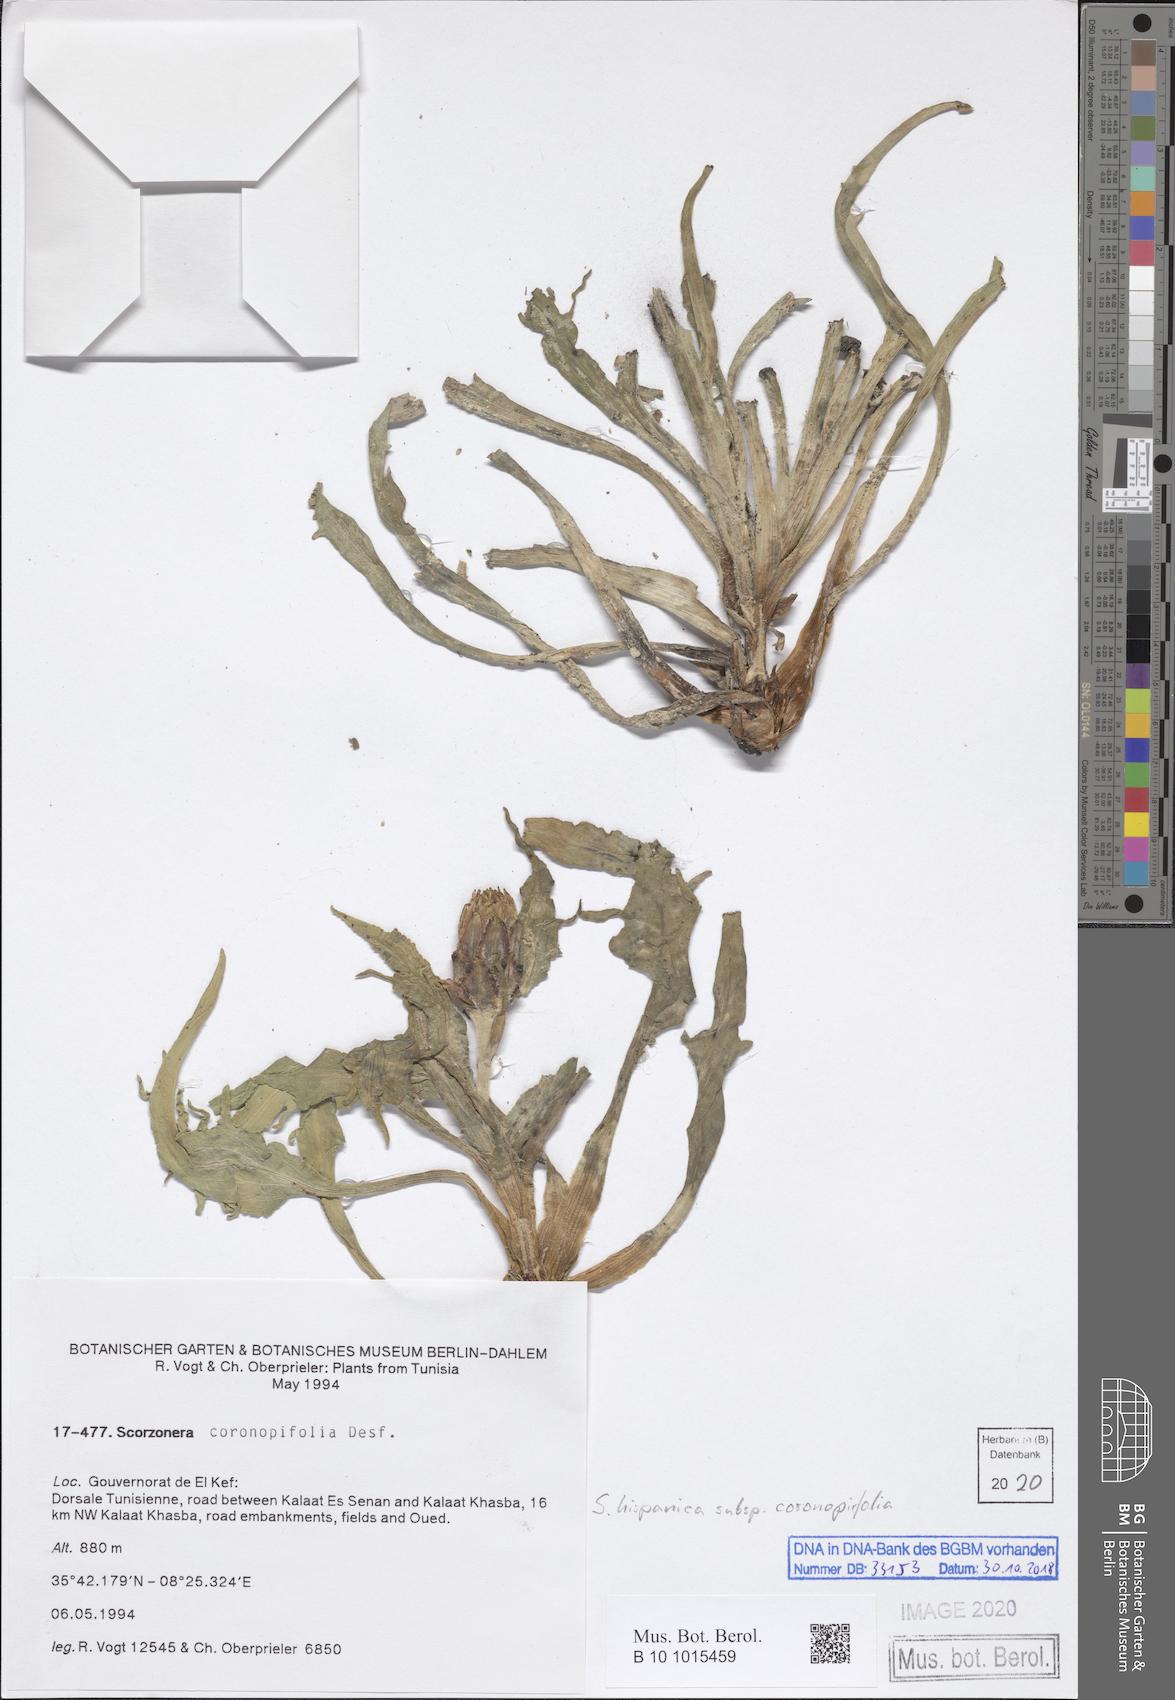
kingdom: Plantae
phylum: Tracheophyta
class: Magnoliopsida
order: Asterales
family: Asteraceae
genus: Pseudopodospermum
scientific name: Pseudopodospermum brevicaule
